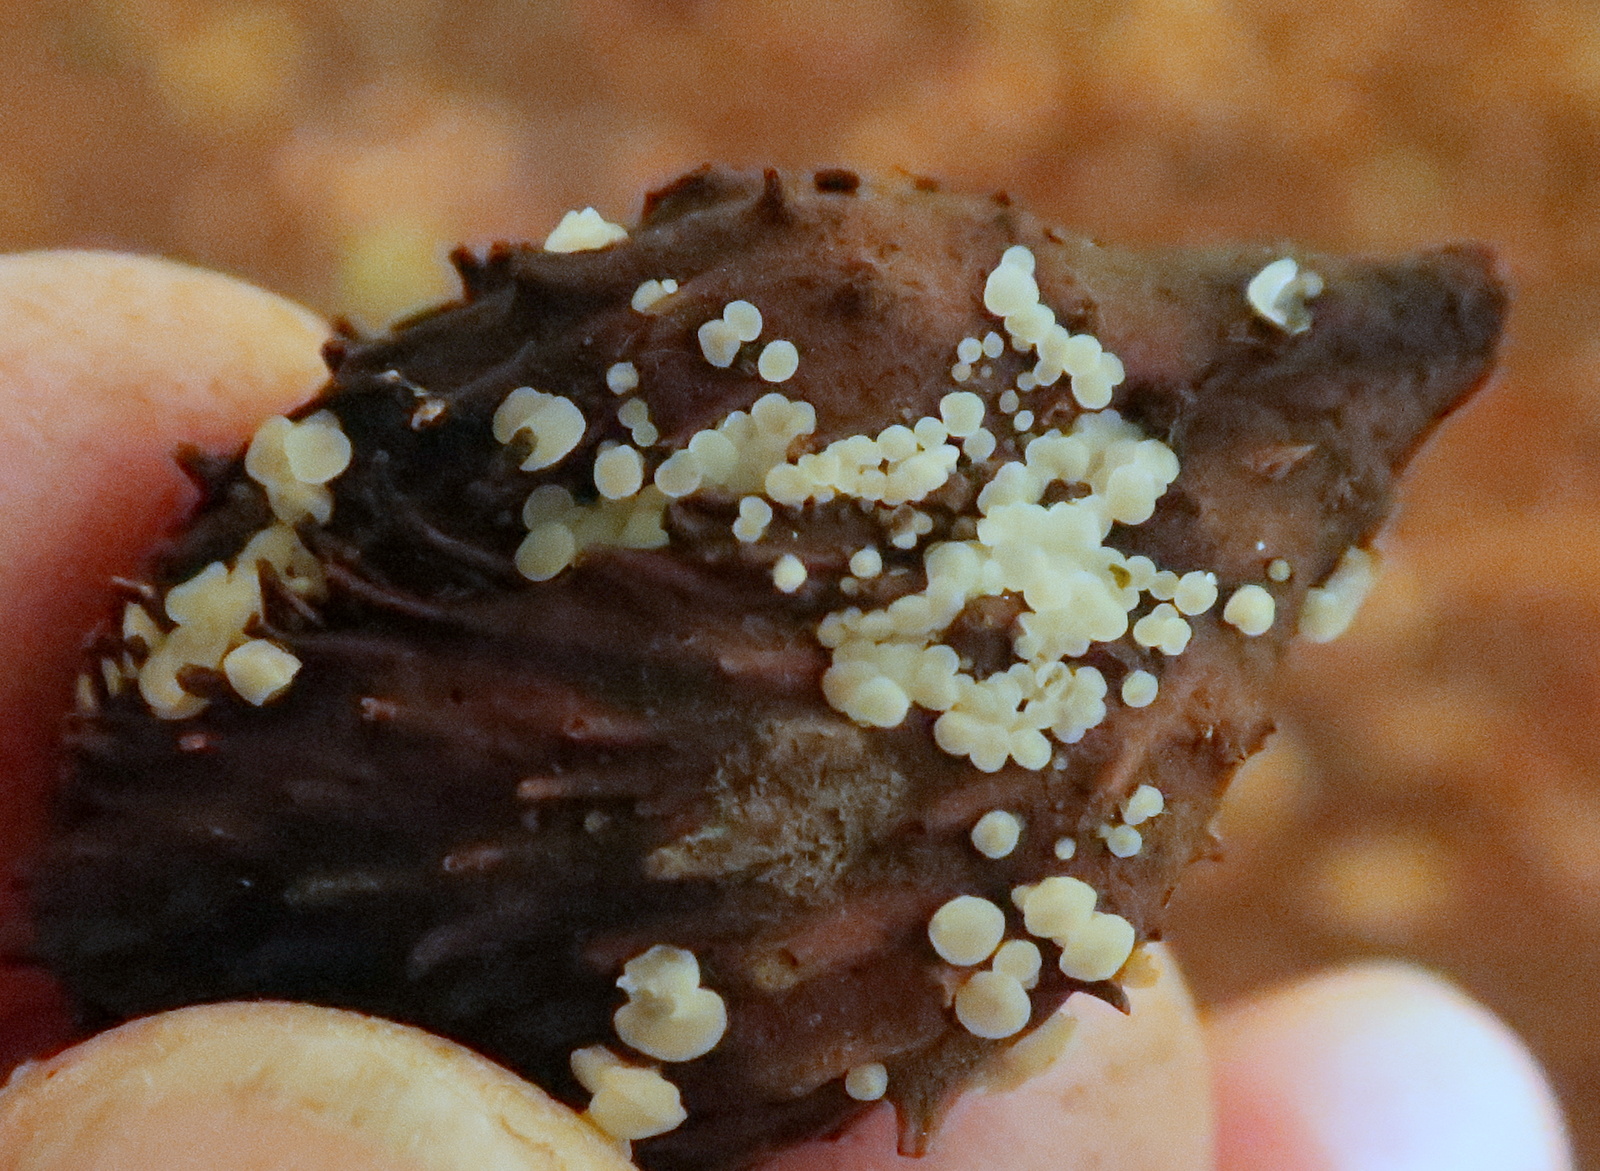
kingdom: Fungi
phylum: Ascomycota
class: Leotiomycetes
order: Helotiales
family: Helotiaceae
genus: Hymenoscyphus
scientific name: Hymenoscyphus fagineus
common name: vellugtende stilkskive
